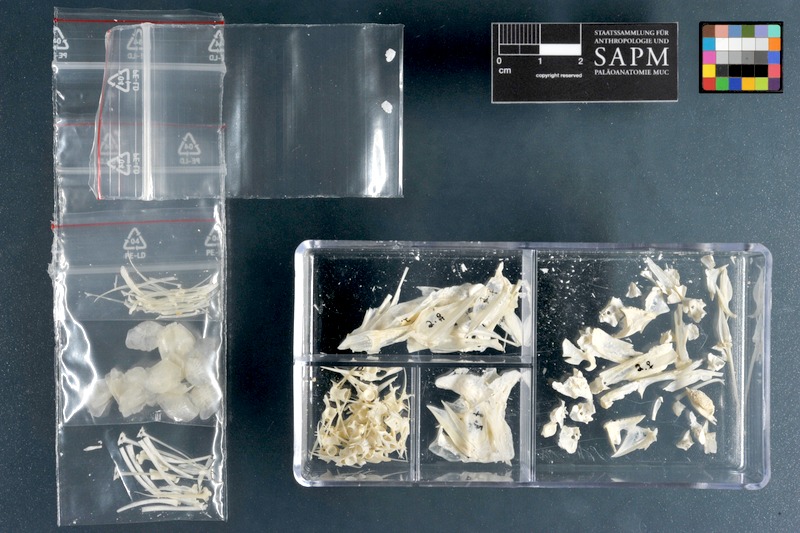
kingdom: Animalia
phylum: Chordata
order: Perciformes
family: Mullidae
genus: Pseudupeneus
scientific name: Pseudupeneus prayensis
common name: West african goatfish
